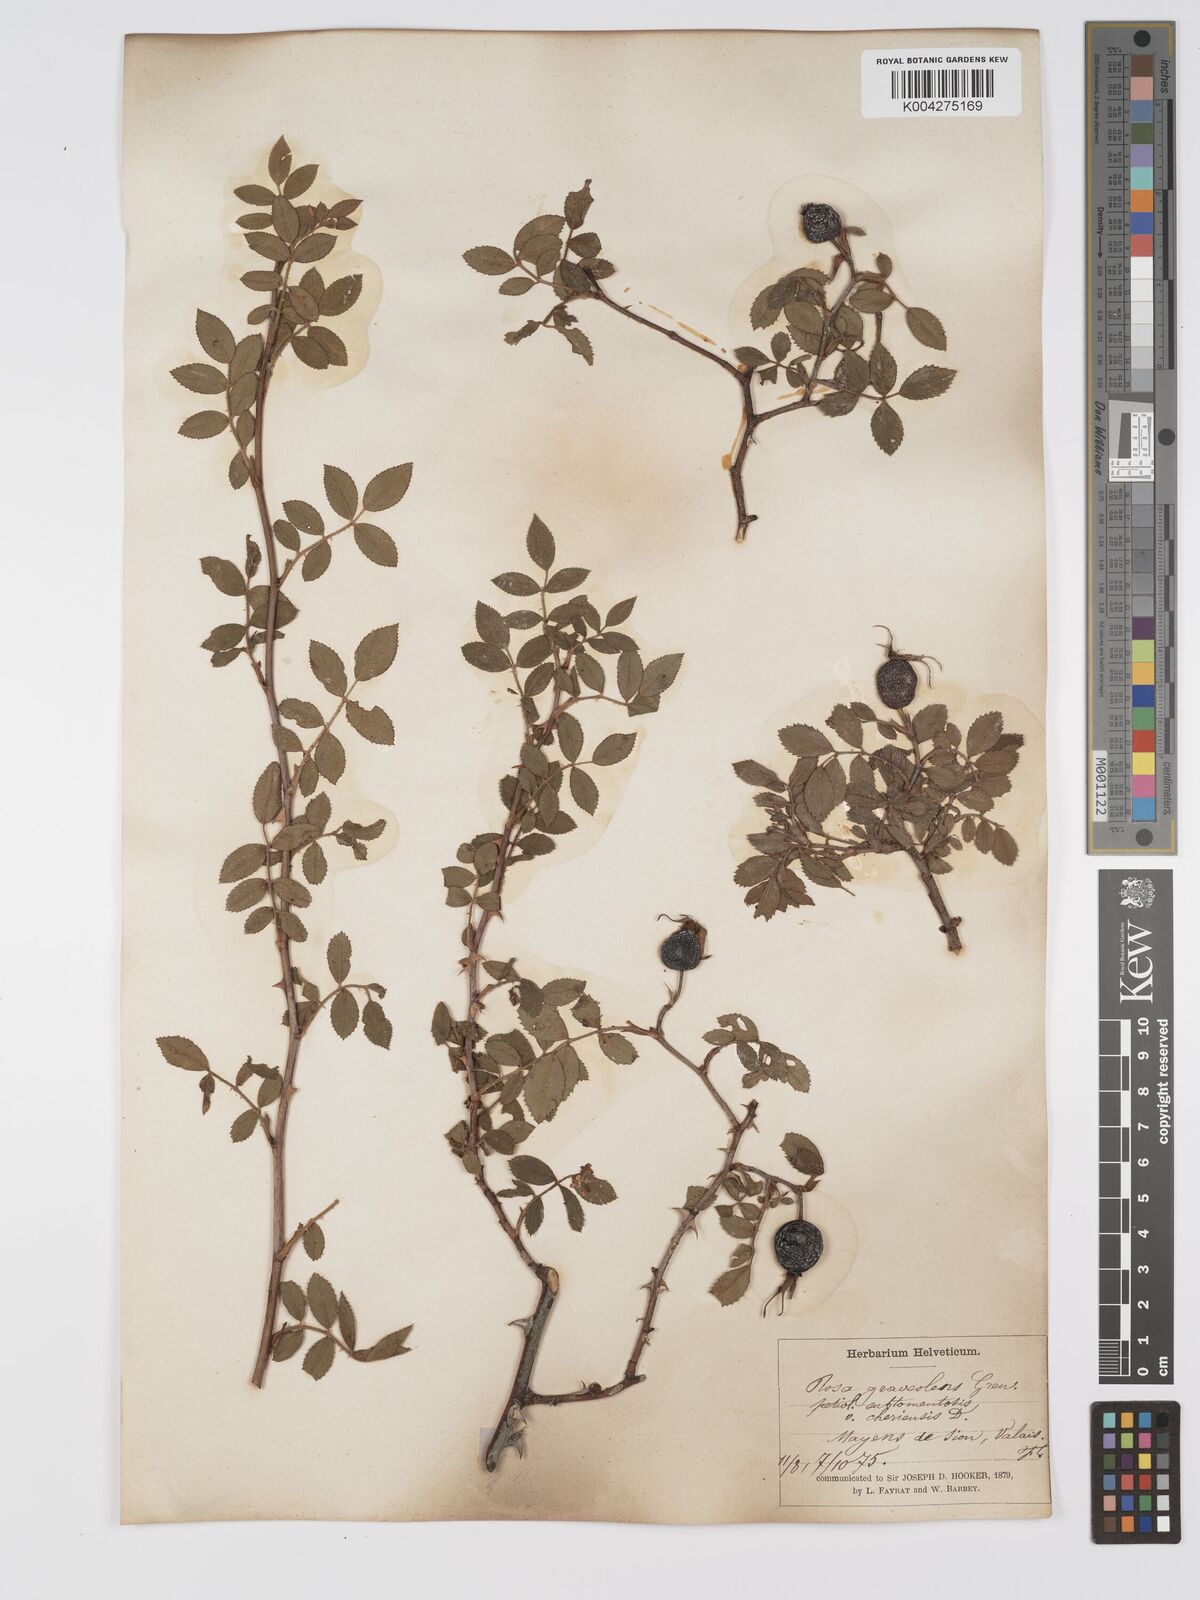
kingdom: Plantae
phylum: Tracheophyta
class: Magnoliopsida
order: Rosales
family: Rosaceae
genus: Rosa
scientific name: Rosa
